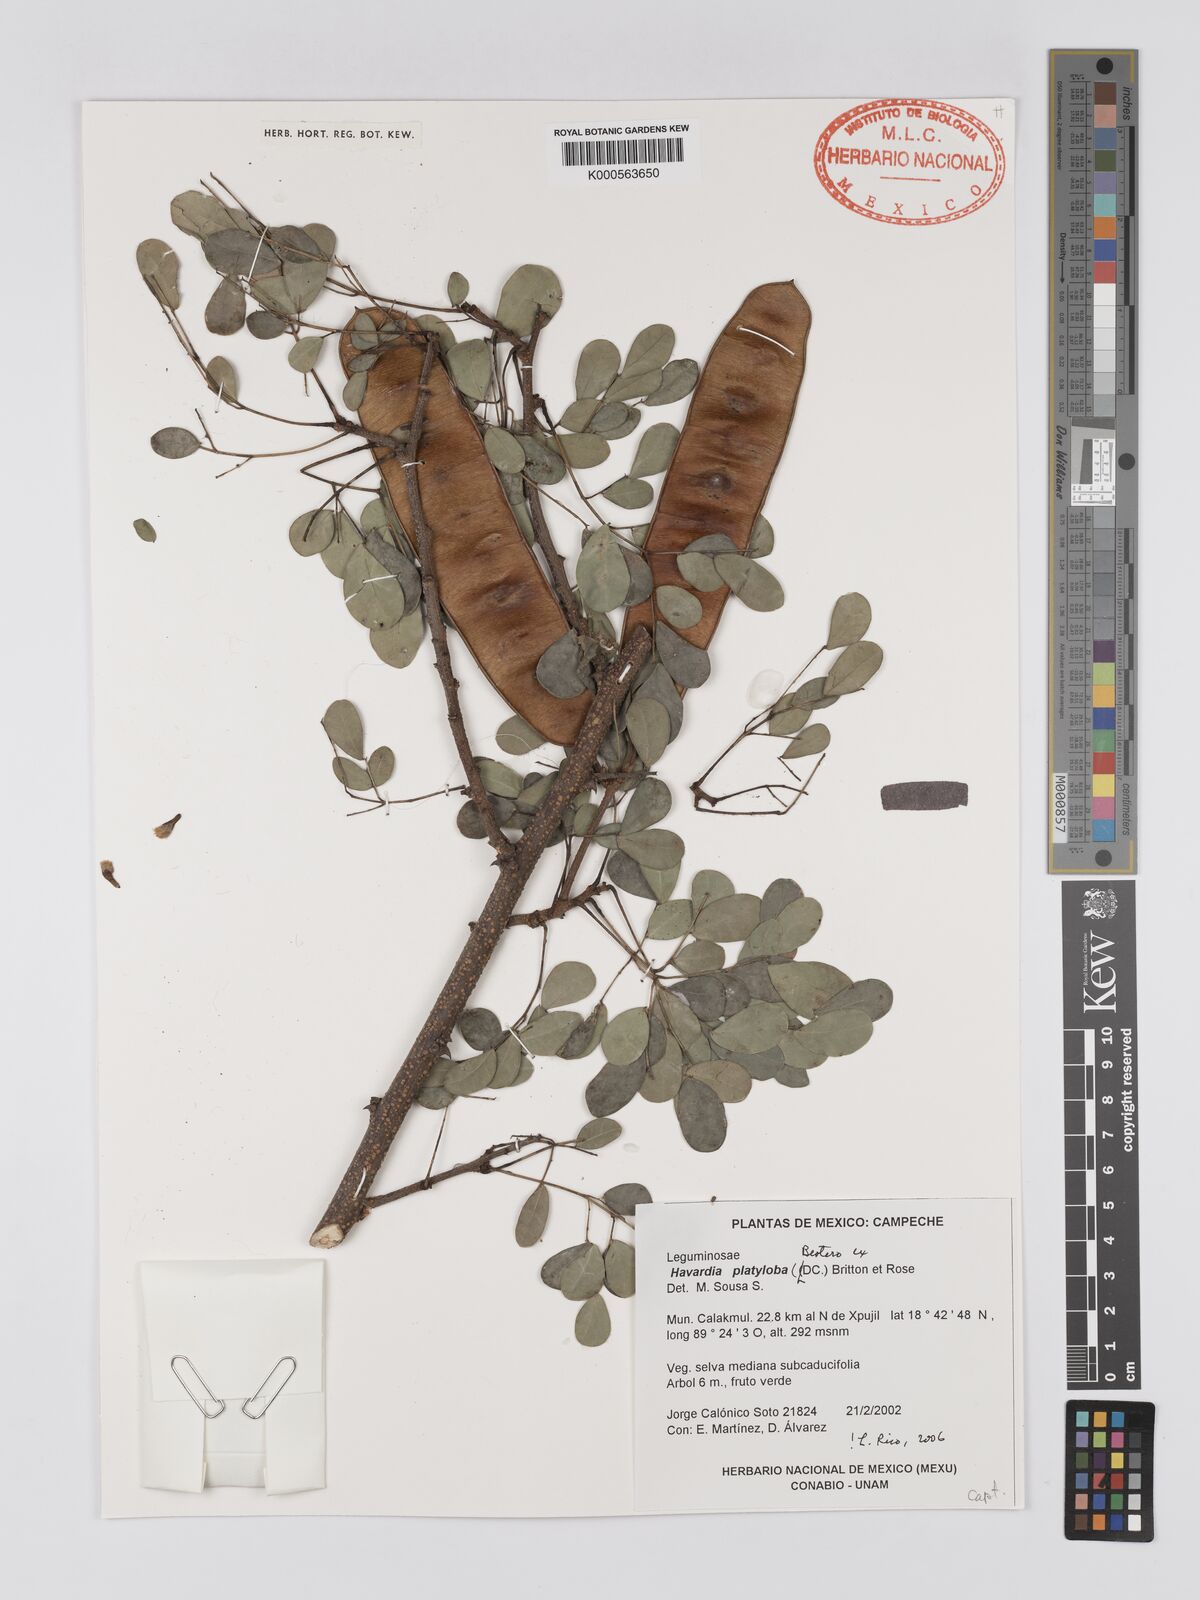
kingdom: Plantae
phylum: Tracheophyta
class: Magnoliopsida
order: Fabales
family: Fabaceae
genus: Havardia
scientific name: Havardia platyloba
